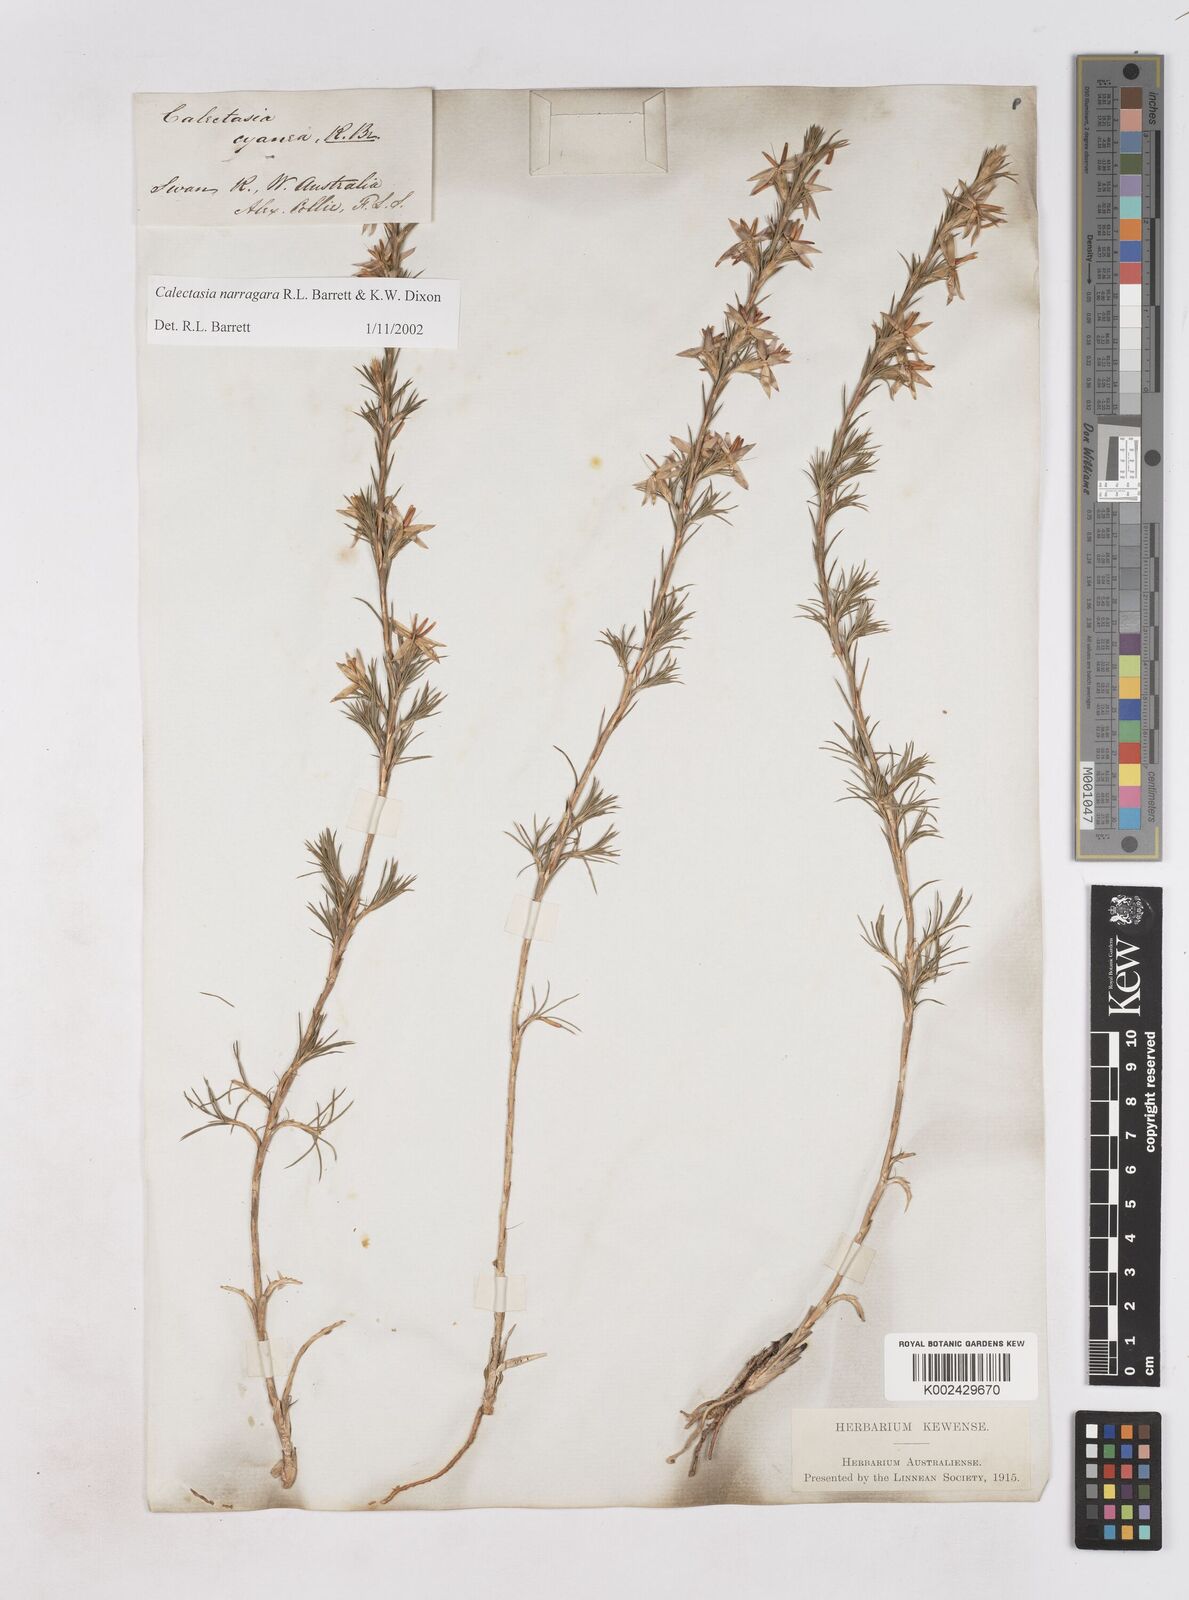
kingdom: Plantae
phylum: Tracheophyta
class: Liliopsida
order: Arecales
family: Dasypogonaceae
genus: Calectasia
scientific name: Calectasia narragara
